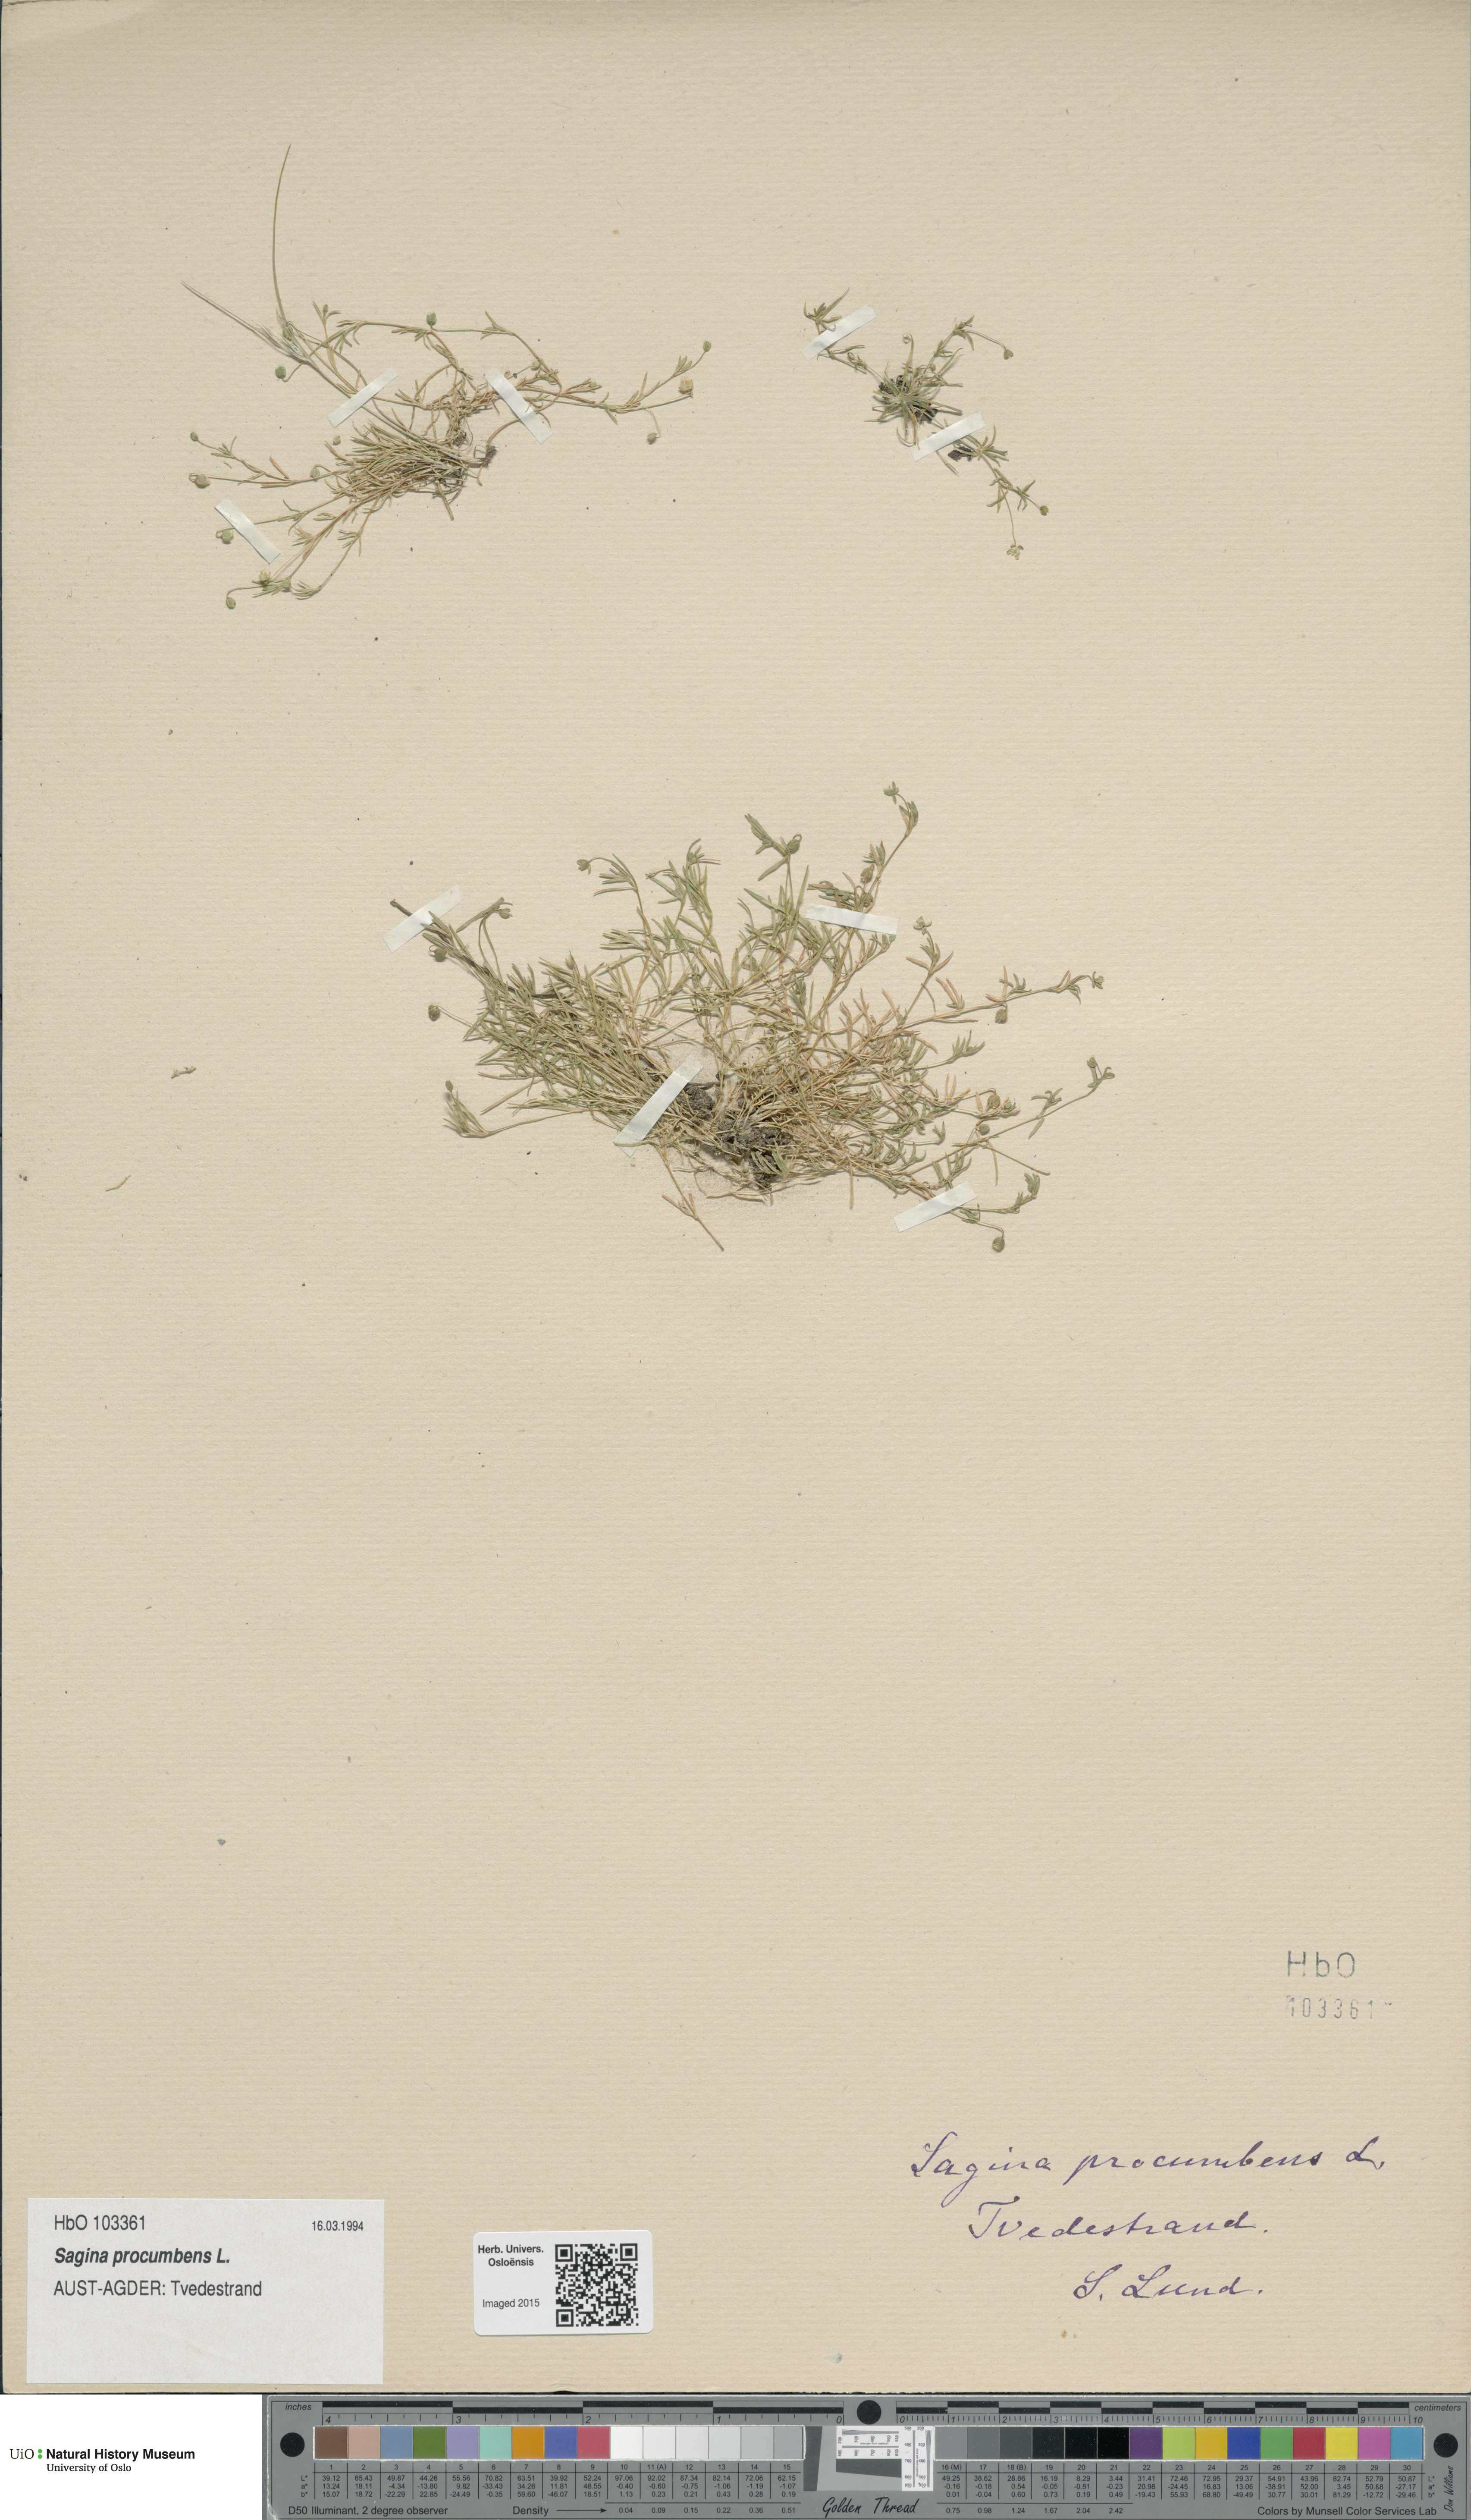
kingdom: Plantae
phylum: Tracheophyta
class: Magnoliopsida
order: Caryophyllales
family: Caryophyllaceae
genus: Sagina
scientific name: Sagina procumbens
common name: Procumbent pearlwort
